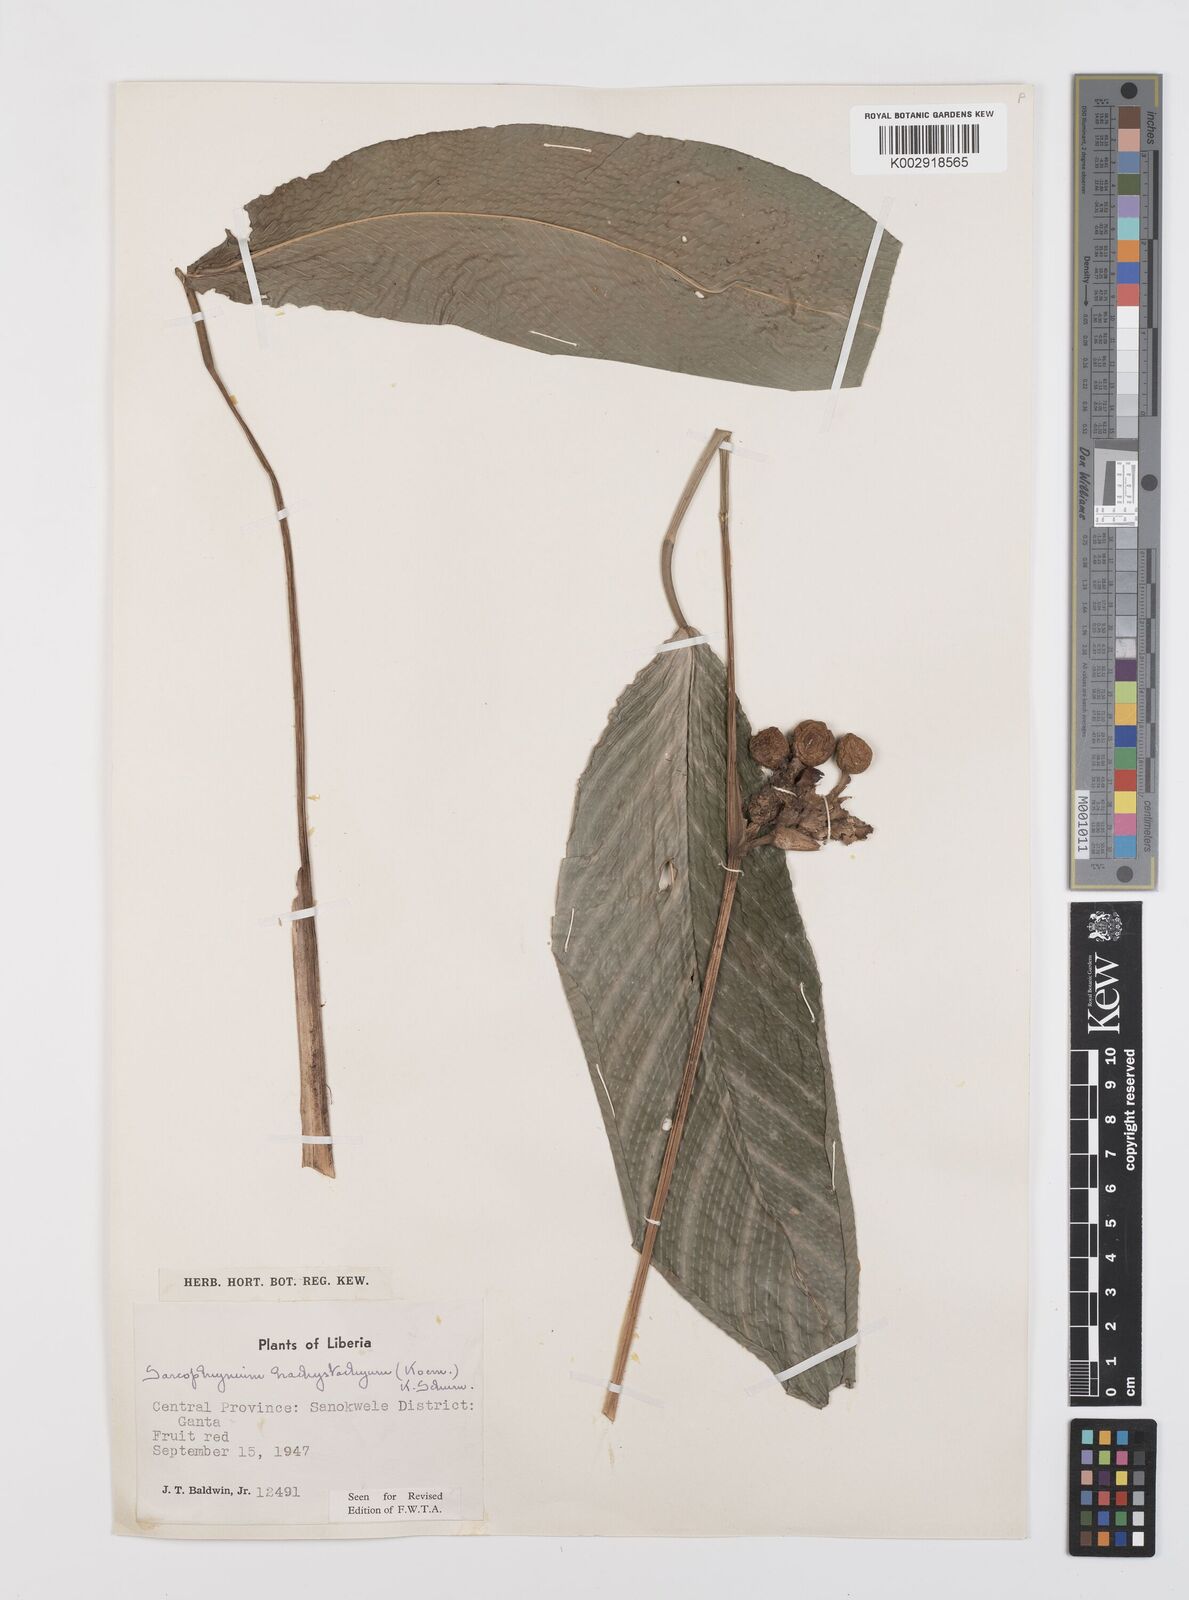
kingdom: Plantae
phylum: Tracheophyta
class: Liliopsida
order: Zingiberales
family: Marantaceae
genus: Sarcophrynium
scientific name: Sarcophrynium brachystachyum
